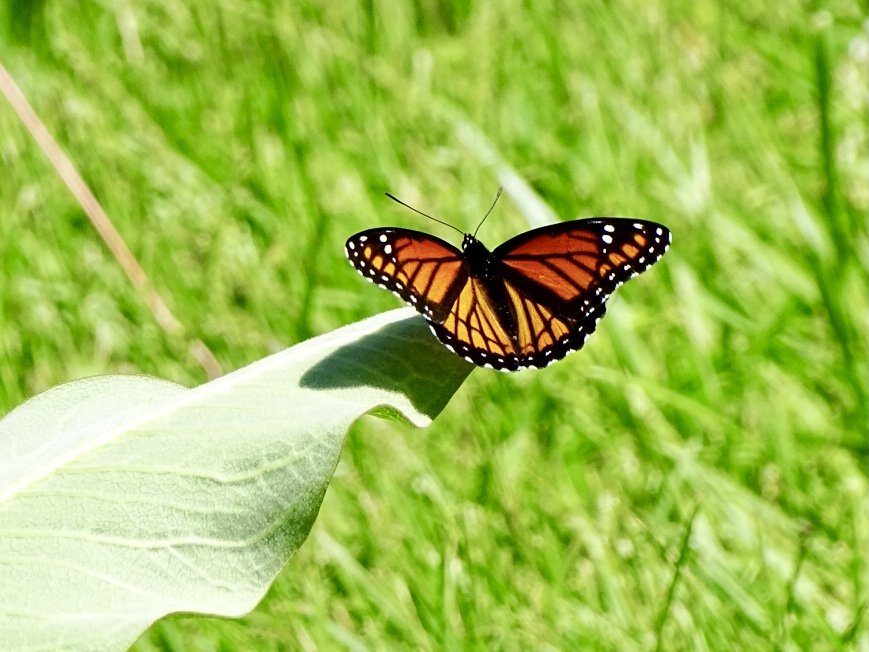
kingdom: Animalia
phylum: Arthropoda
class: Insecta
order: Lepidoptera
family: Nymphalidae
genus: Limenitis
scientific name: Limenitis archippus
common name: Viceroy
